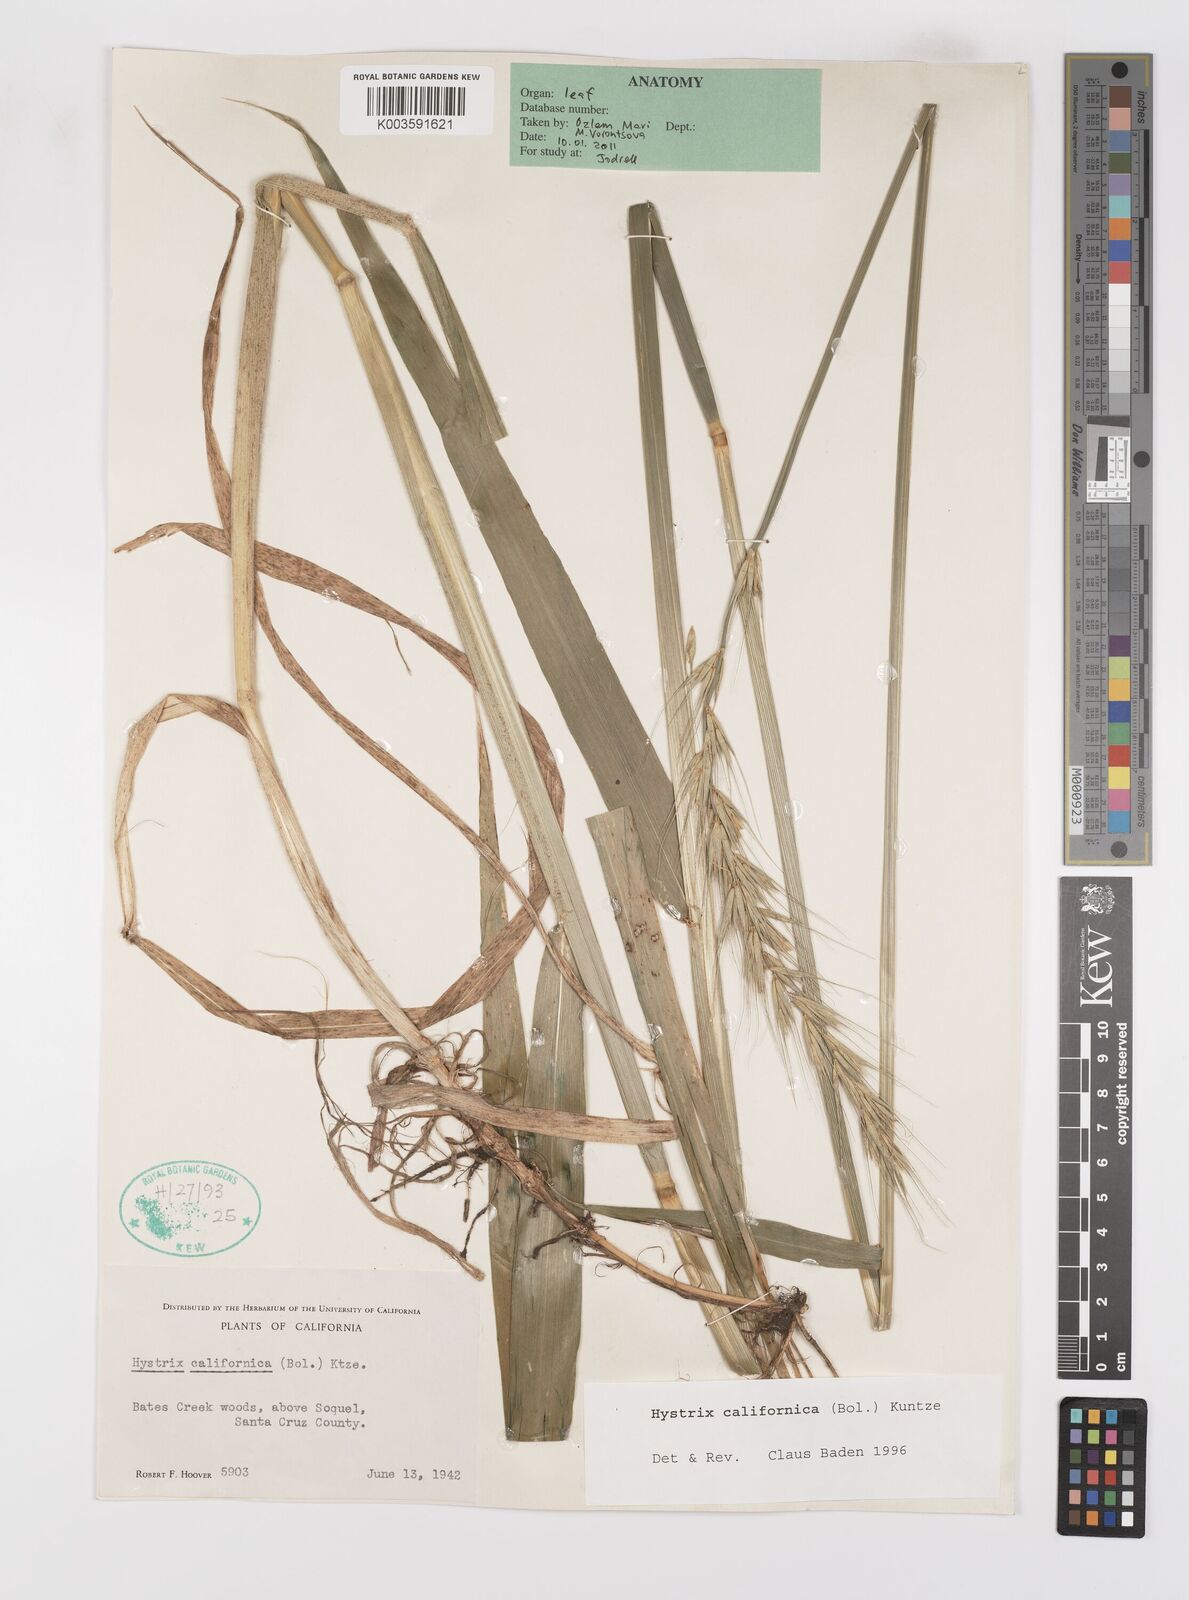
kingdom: Plantae
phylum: Tracheophyta
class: Liliopsida
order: Poales
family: Poaceae
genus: Leymus
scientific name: Leymus
